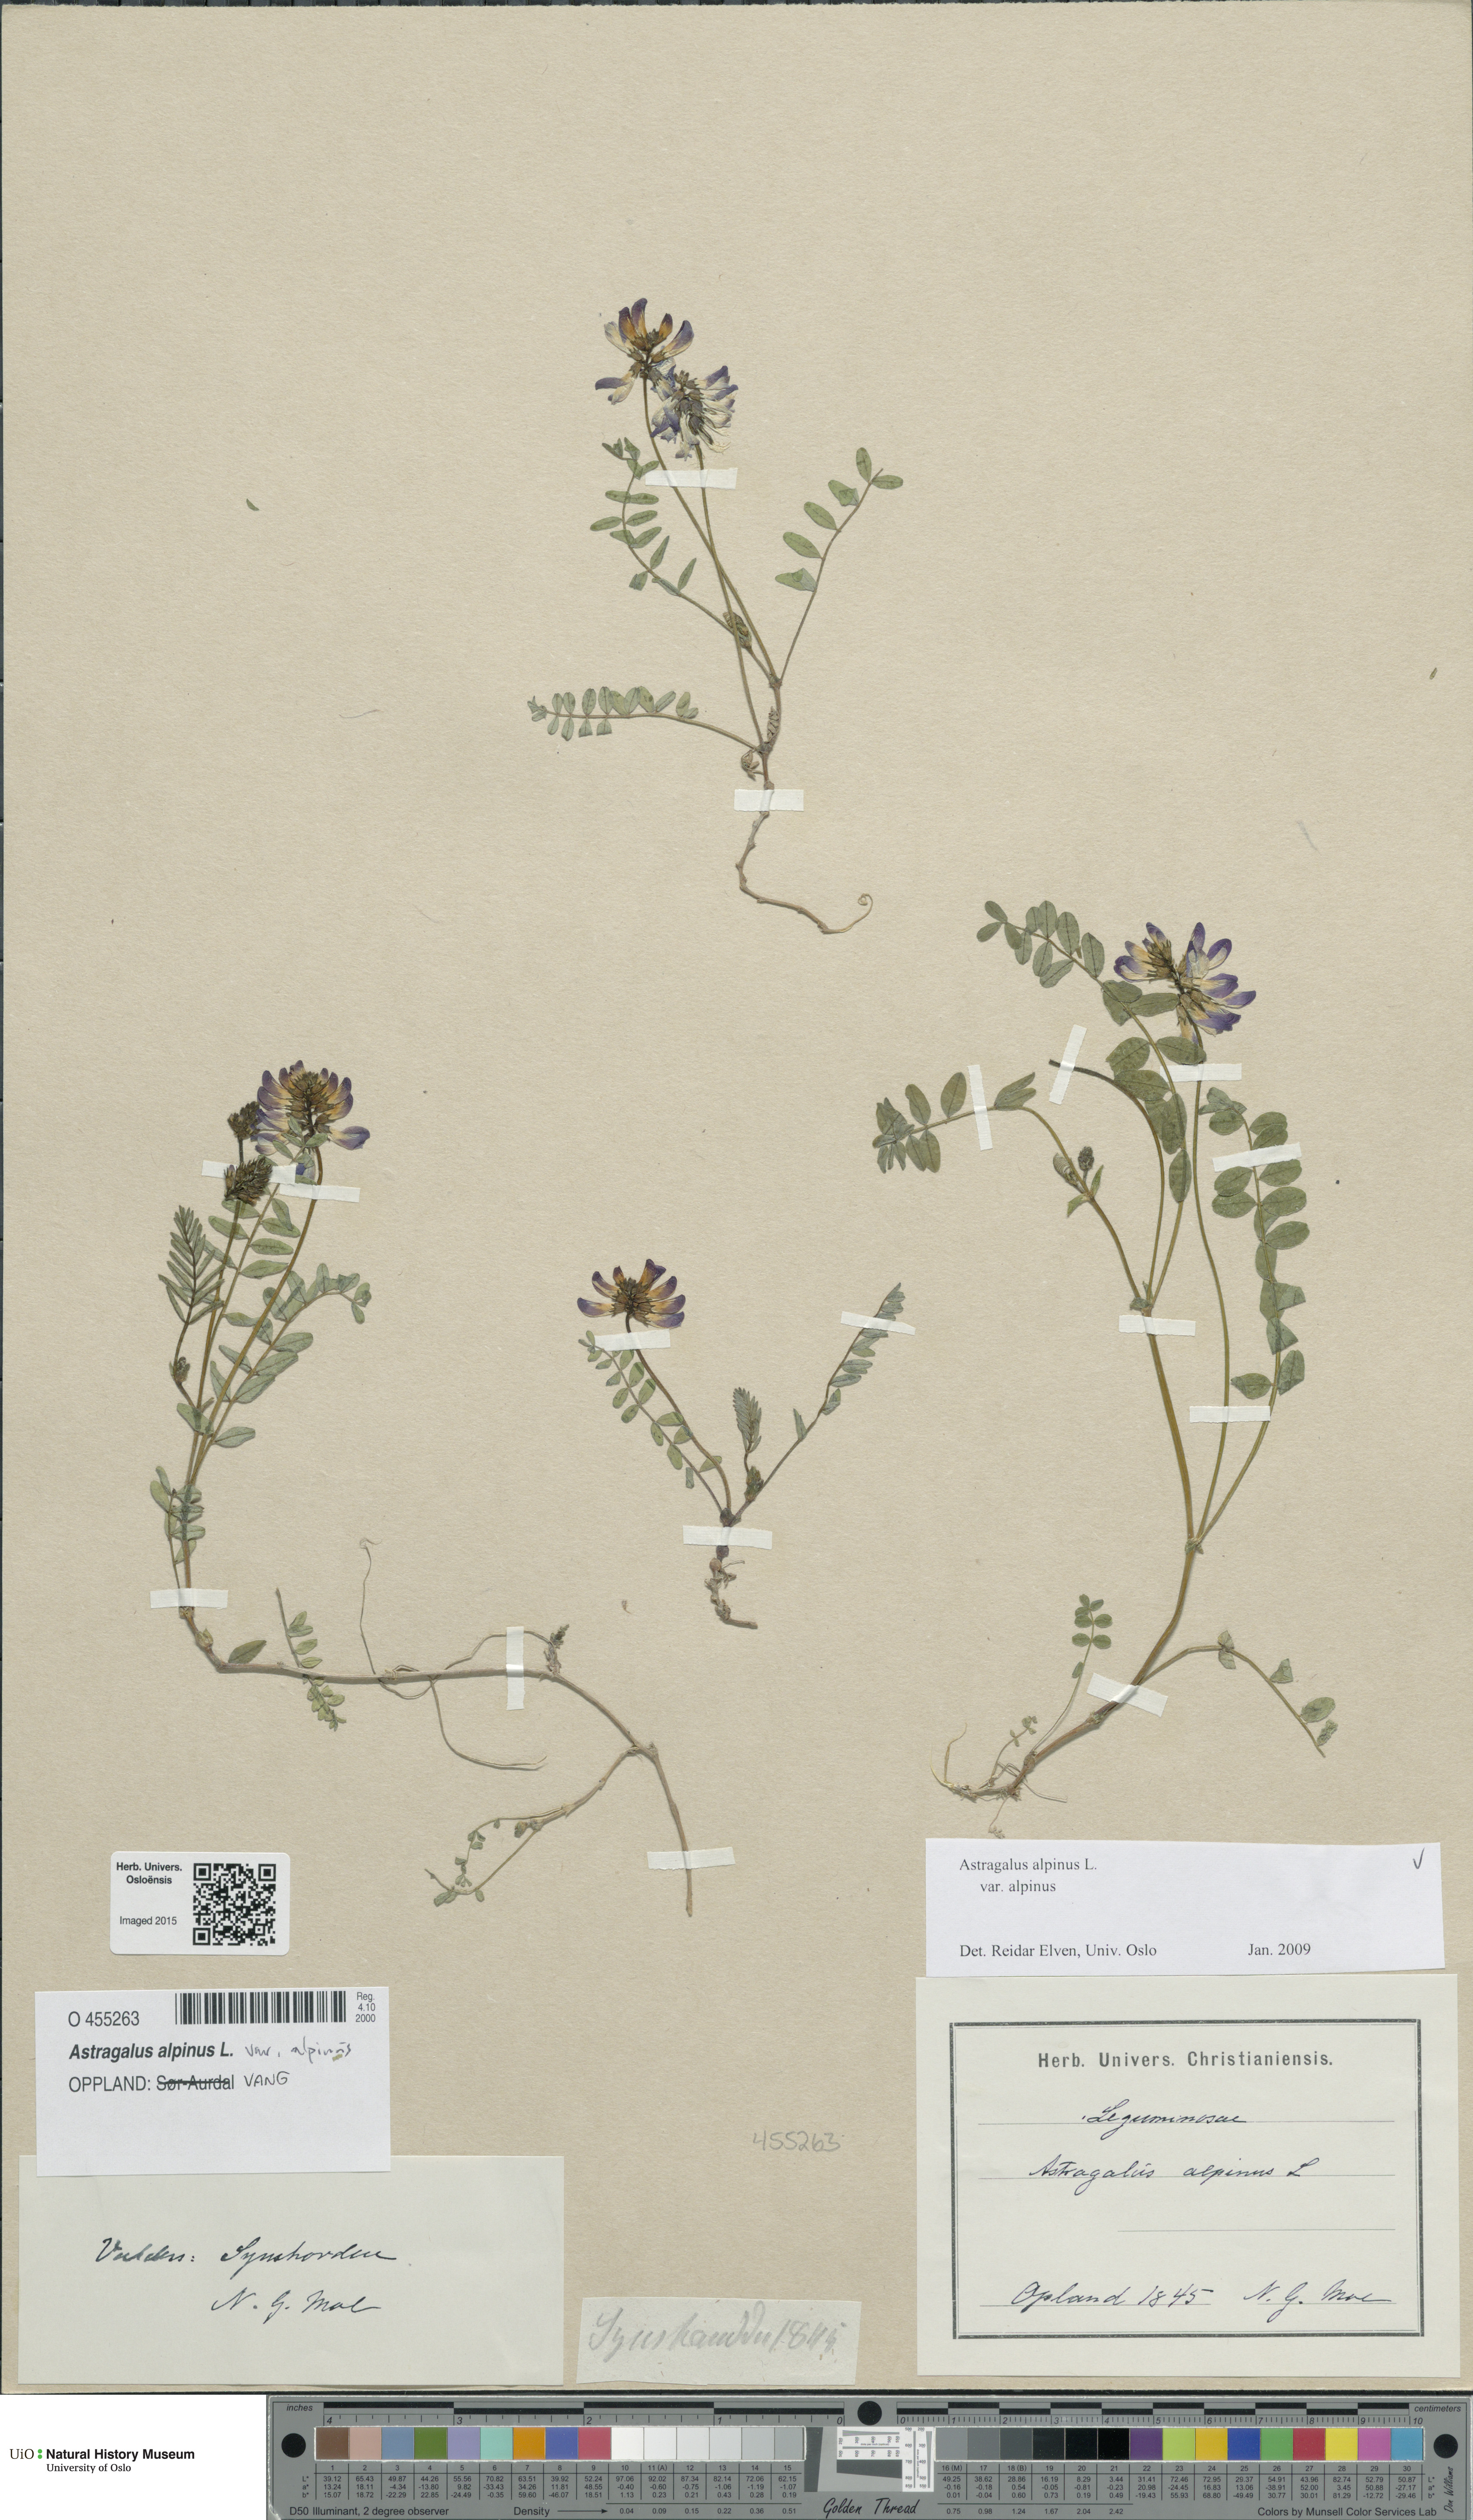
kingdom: Plantae
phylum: Tracheophyta
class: Magnoliopsida
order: Fabales
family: Fabaceae
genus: Astragalus
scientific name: Astragalus alpinus
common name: Alpine milk-vetch
